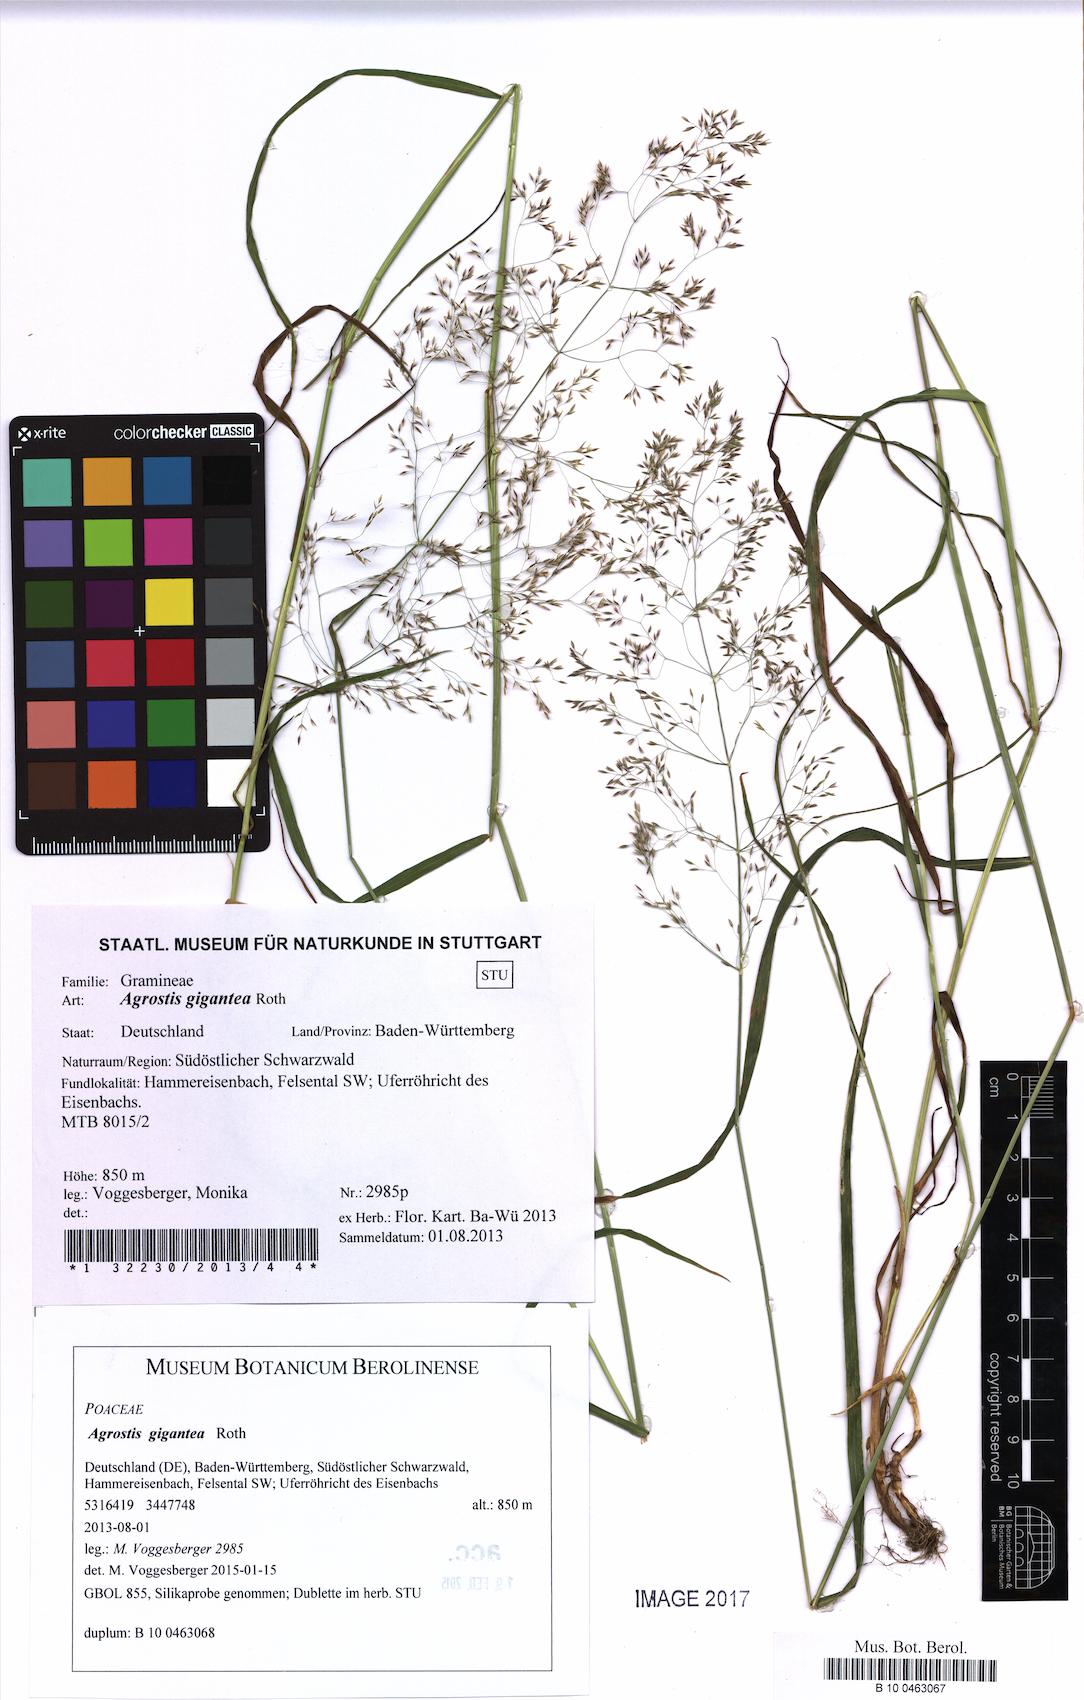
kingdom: Plantae
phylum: Tracheophyta
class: Liliopsida
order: Poales
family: Poaceae
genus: Agrostis
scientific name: Agrostis gigantea
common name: Black bent
